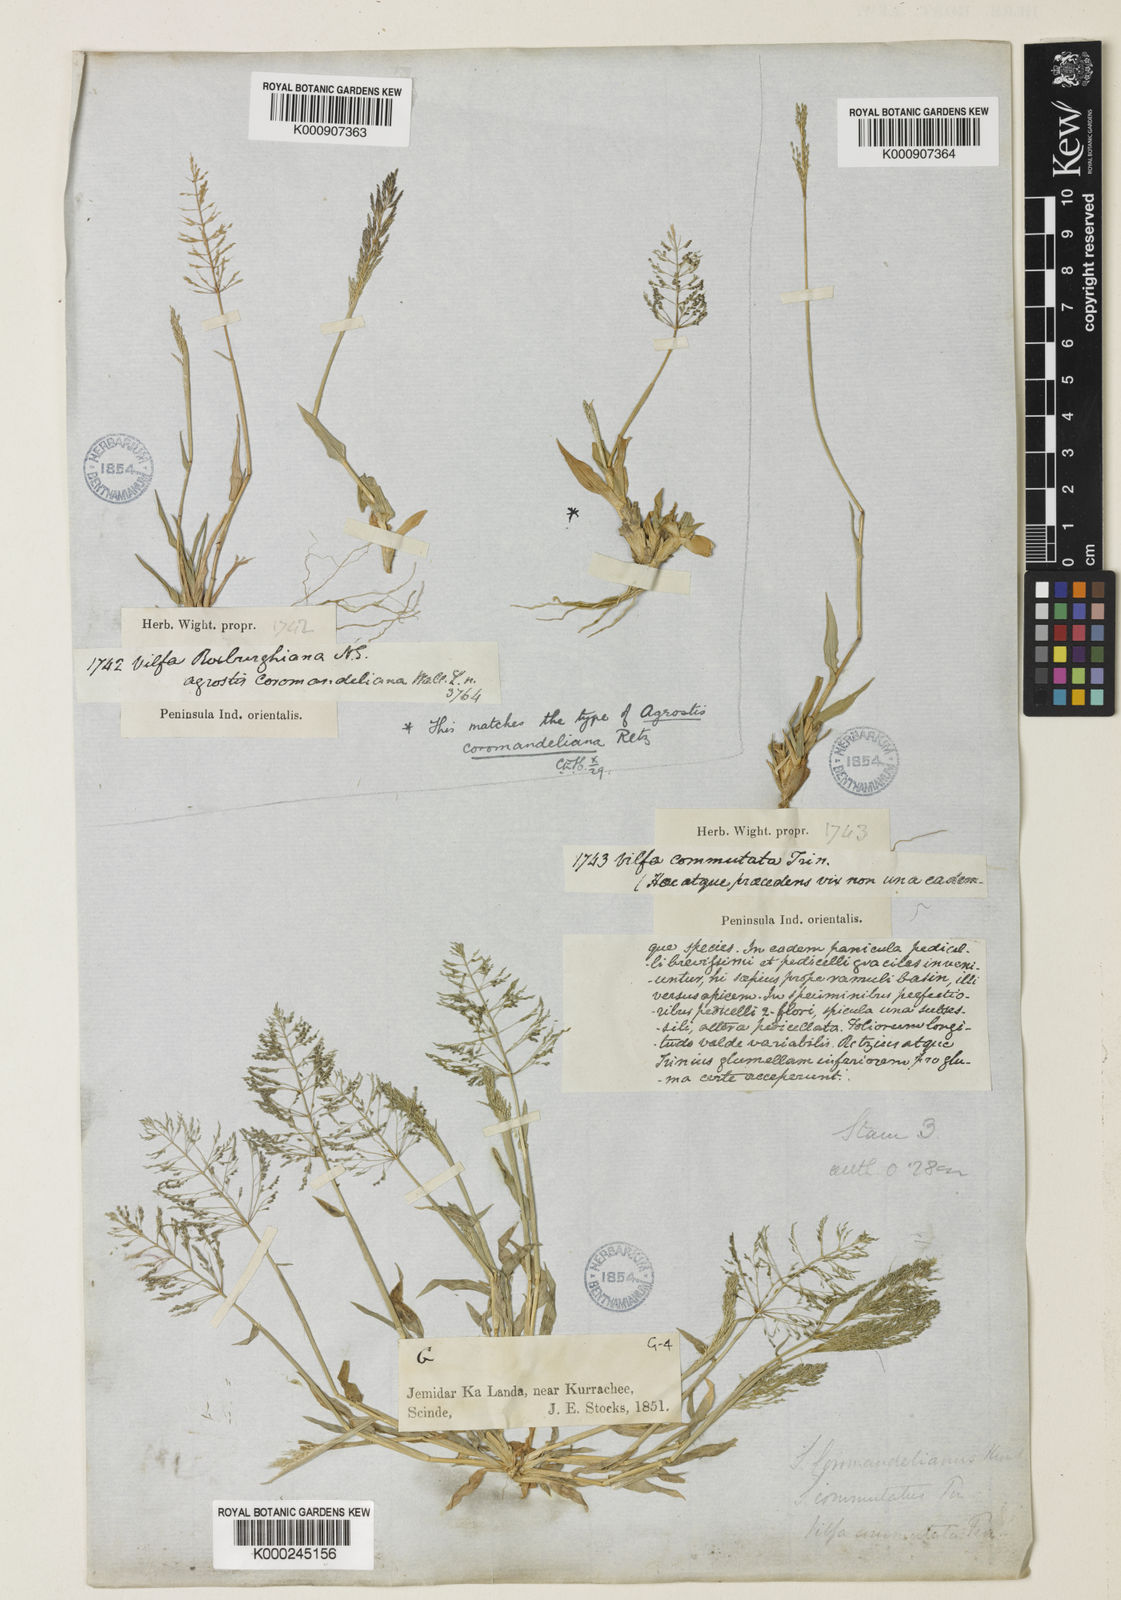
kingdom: Plantae
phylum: Tracheophyta
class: Liliopsida
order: Poales
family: Poaceae
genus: Sporobolus
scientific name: Sporobolus coromandelianus
